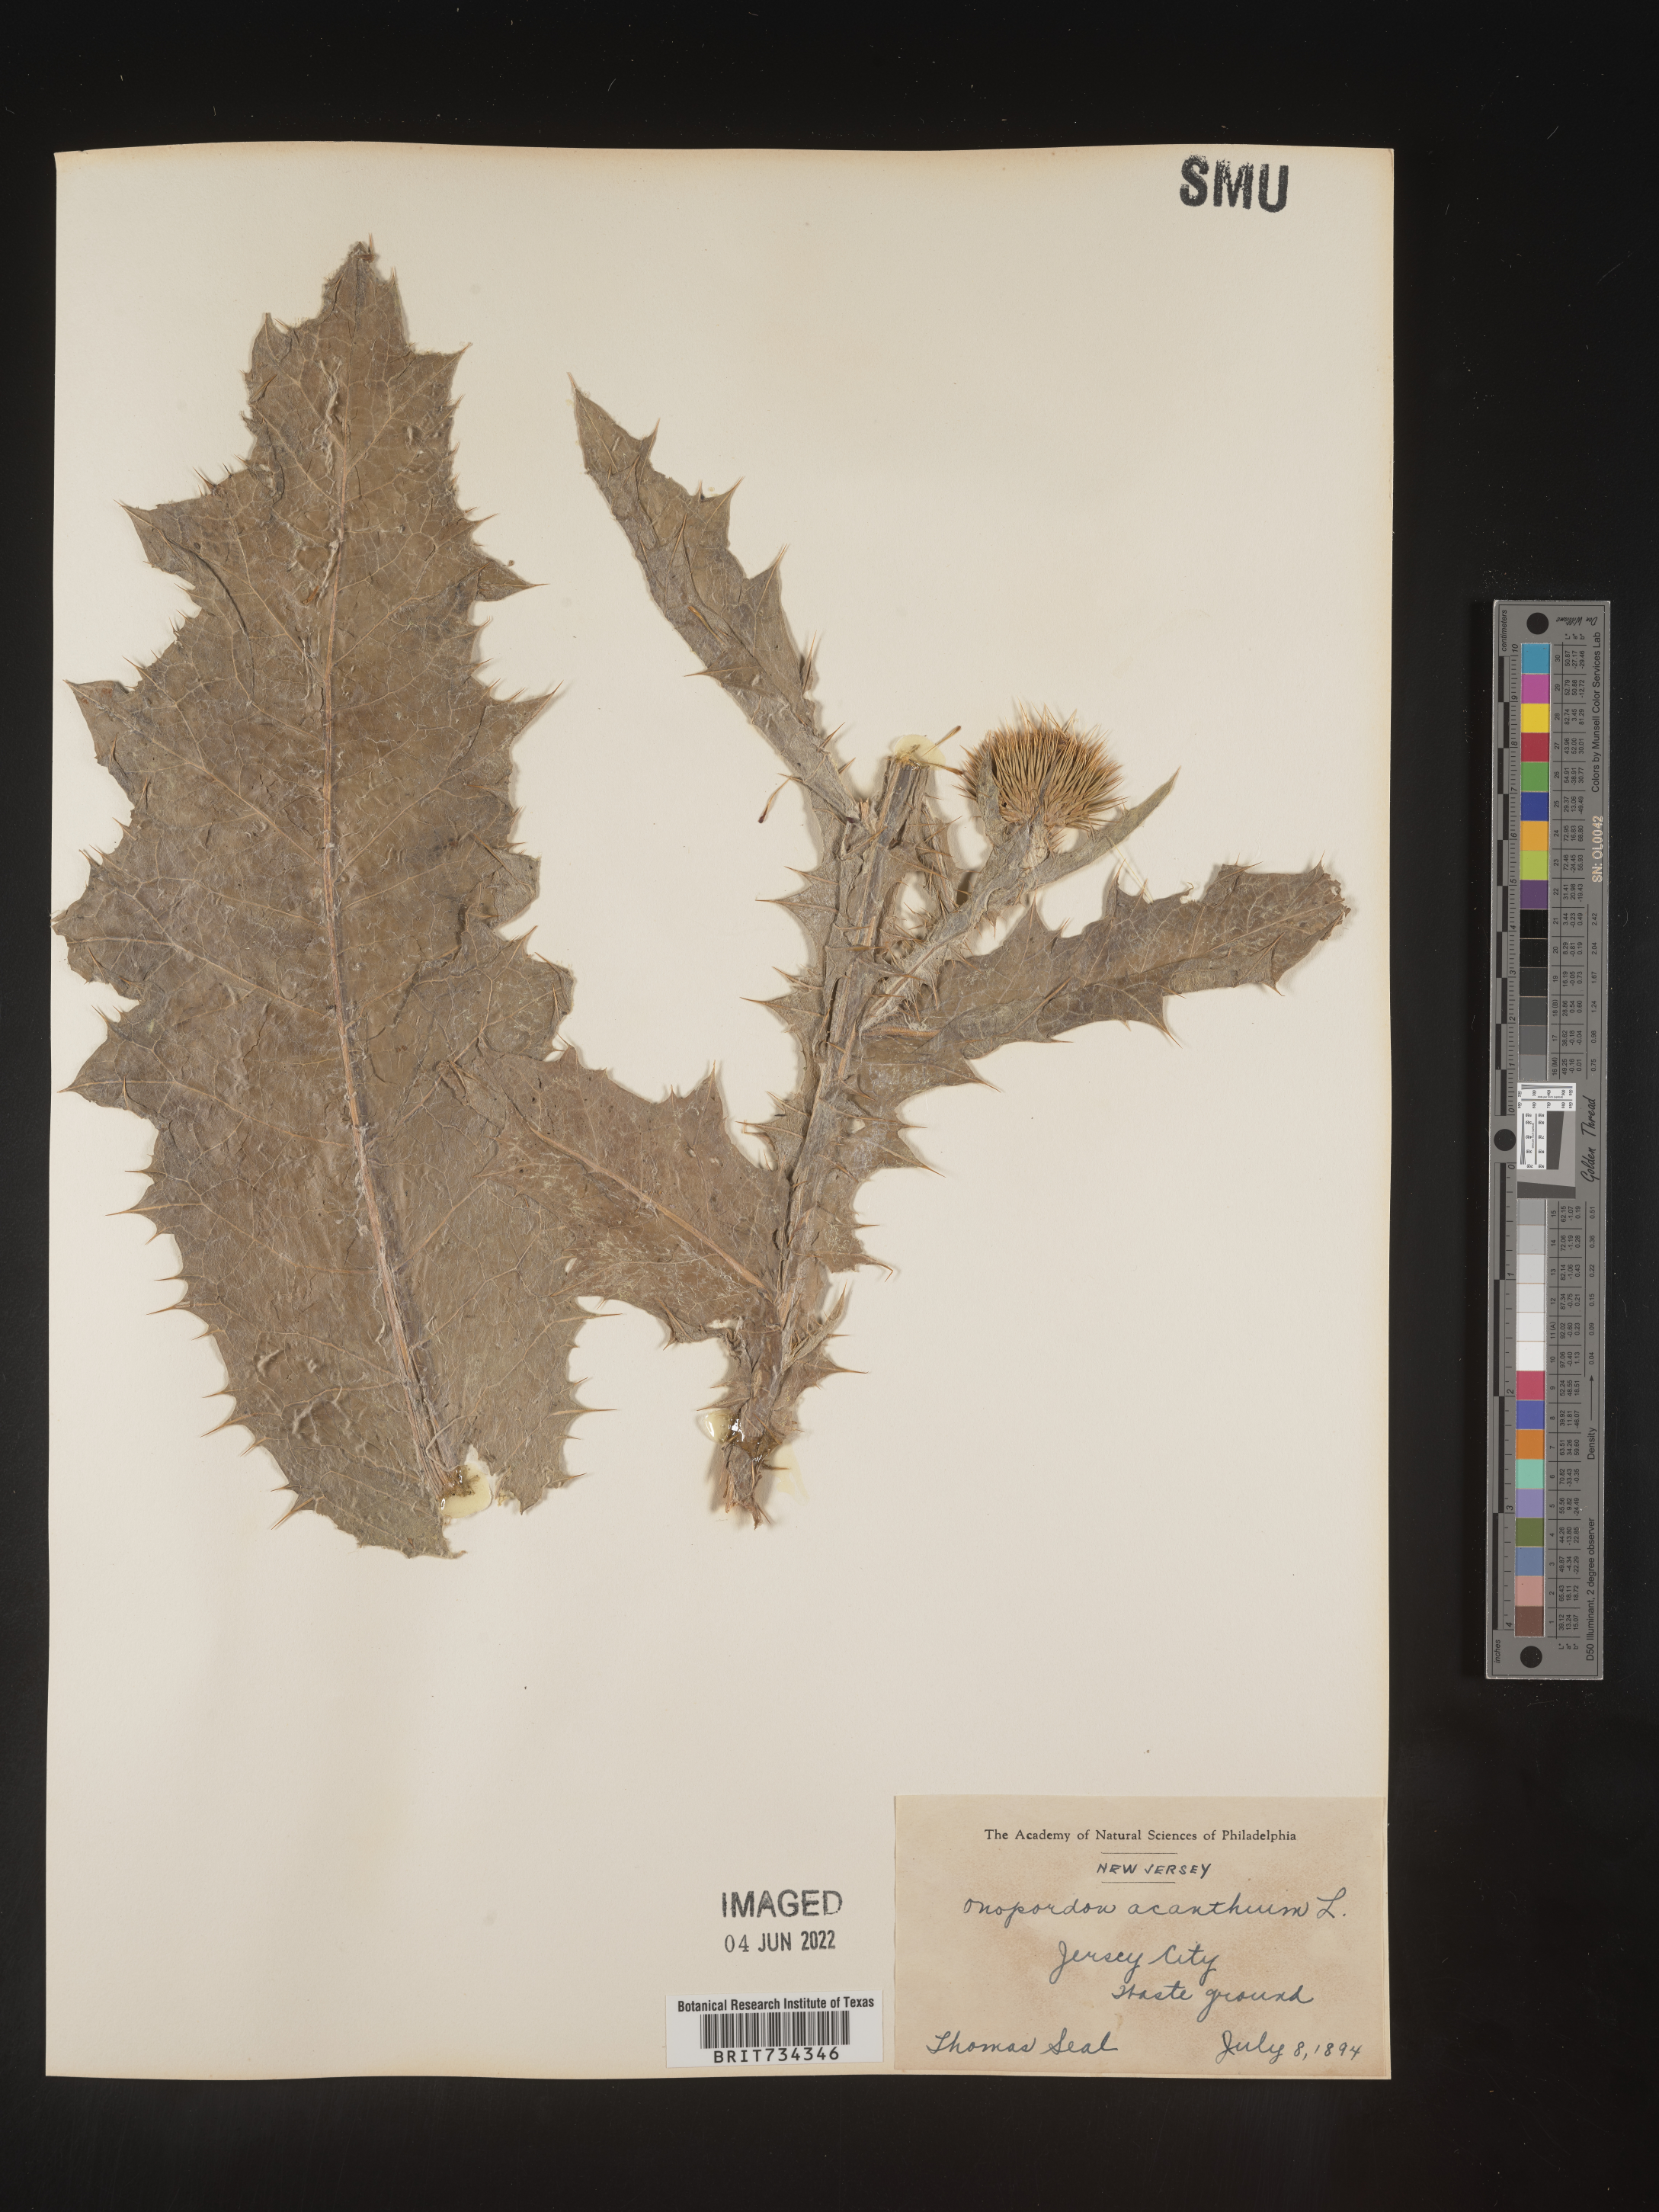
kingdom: Plantae
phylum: Tracheophyta
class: Magnoliopsida
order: Asterales
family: Asteraceae
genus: Onopordum
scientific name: Onopordum acanthium
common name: Scotch thistle
